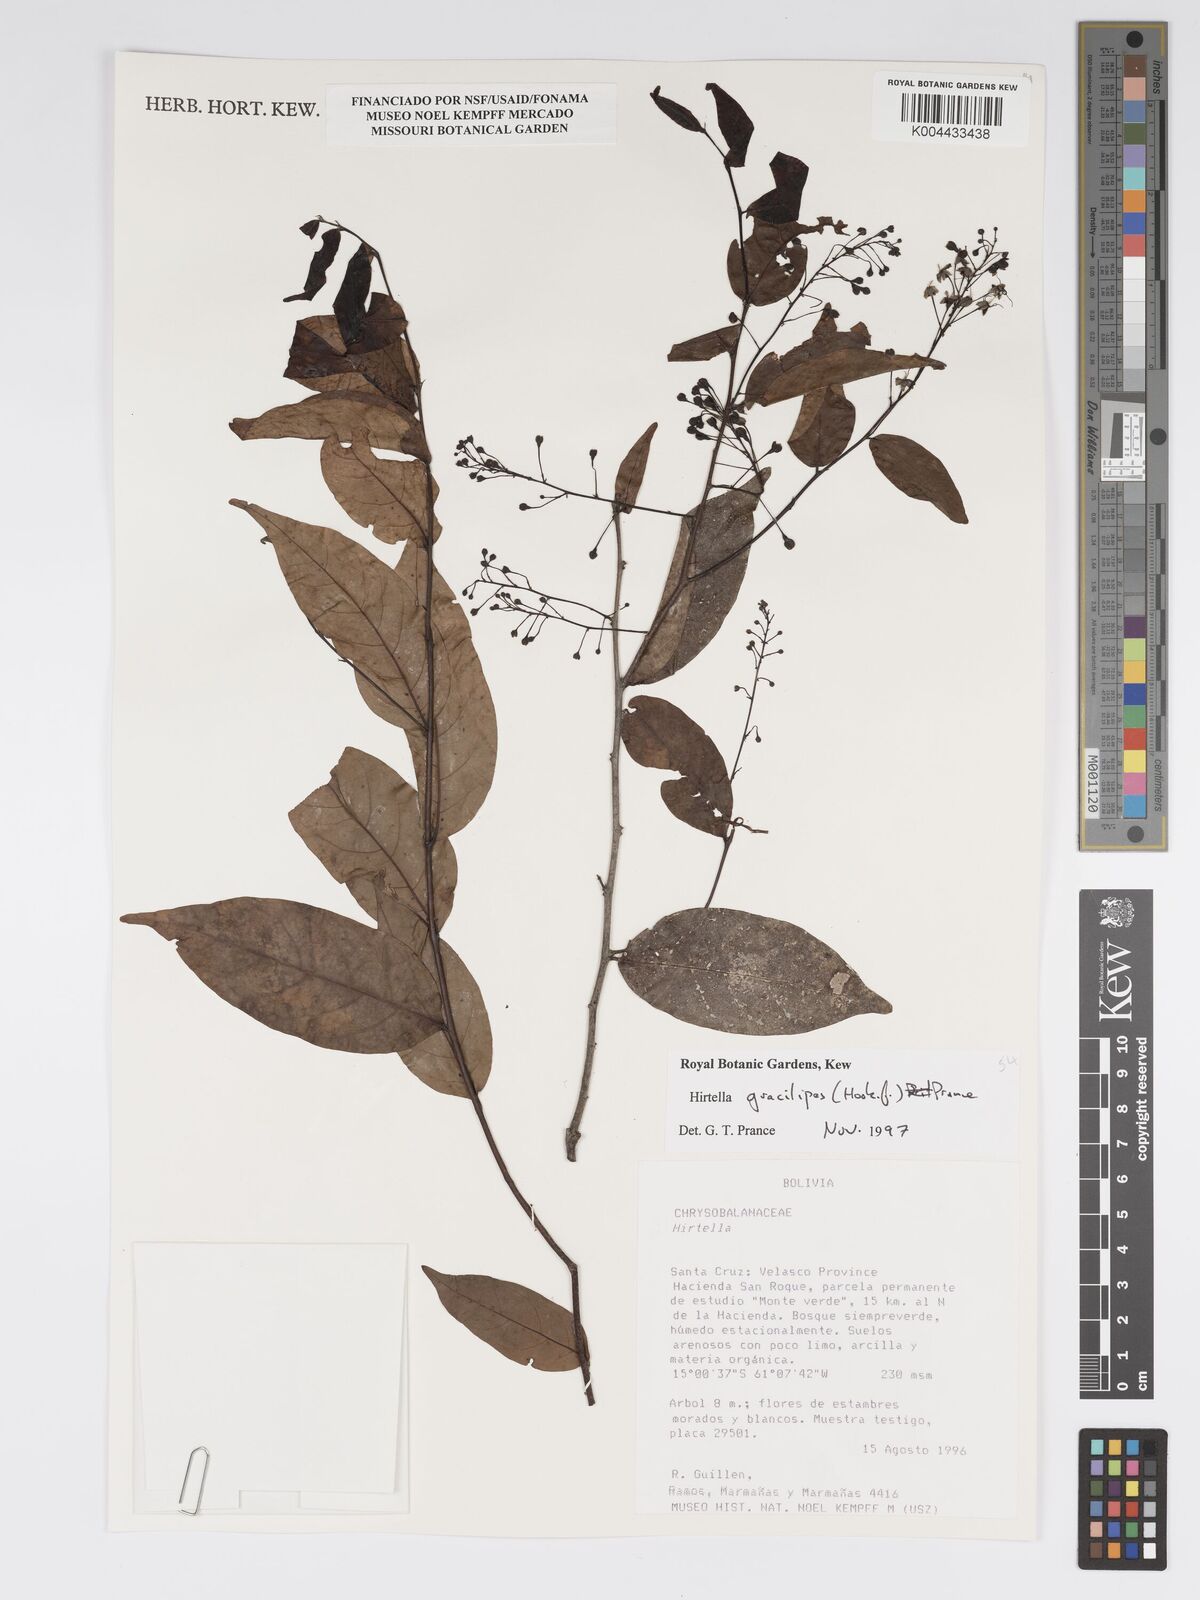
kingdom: Plantae
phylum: Tracheophyta
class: Magnoliopsida
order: Malpighiales
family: Chrysobalanaceae
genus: Hirtella
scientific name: Hirtella gracilipes
